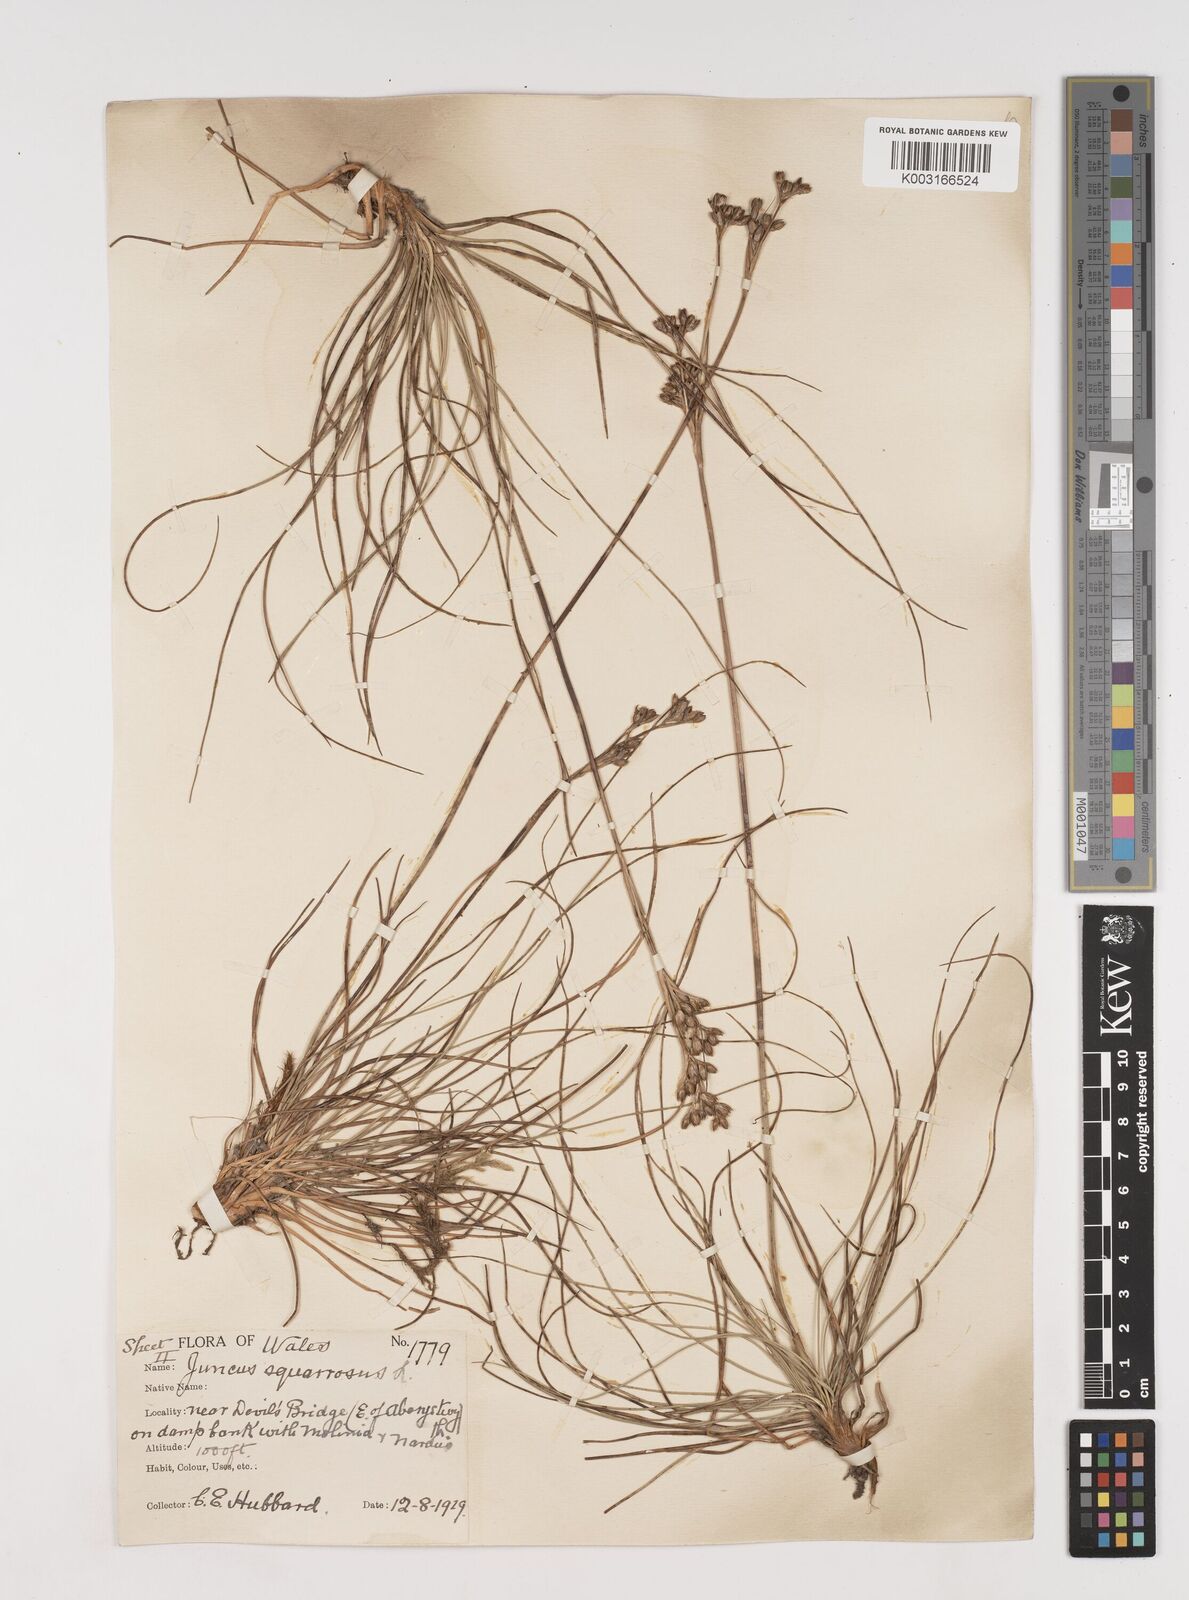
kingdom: Plantae
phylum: Tracheophyta
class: Liliopsida
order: Poales
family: Juncaceae
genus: Juncus
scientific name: Juncus squarrosus
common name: Heath rush
